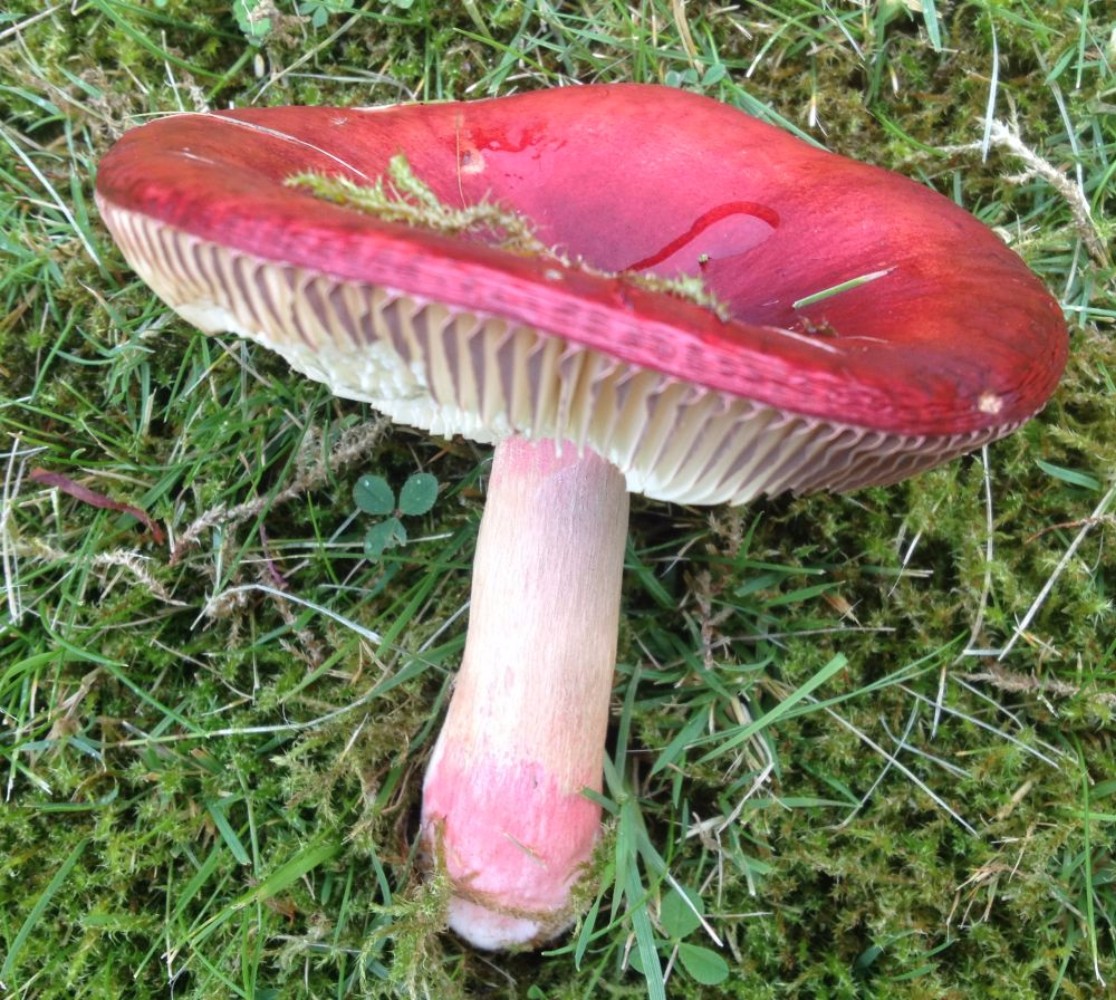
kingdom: Fungi
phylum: Basidiomycota
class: Agaricomycetes
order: Russulales
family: Russulaceae
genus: Russula
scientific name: Russula xerampelina
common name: hummer-skørhat
